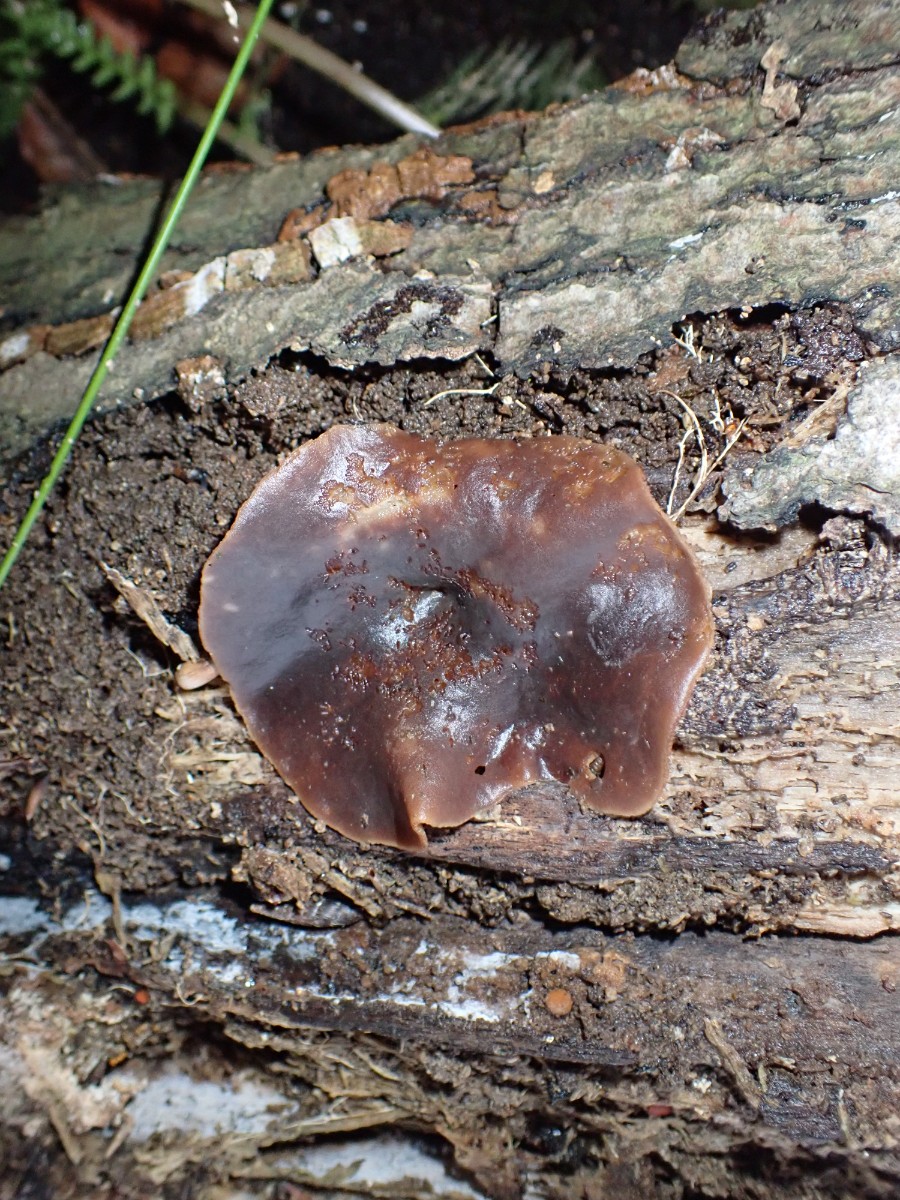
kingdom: Fungi
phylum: Ascomycota
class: Pezizomycetes
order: Pezizales
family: Pezizaceae
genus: Peziza
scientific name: Peziza varia
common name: Ved-bægersvamp
